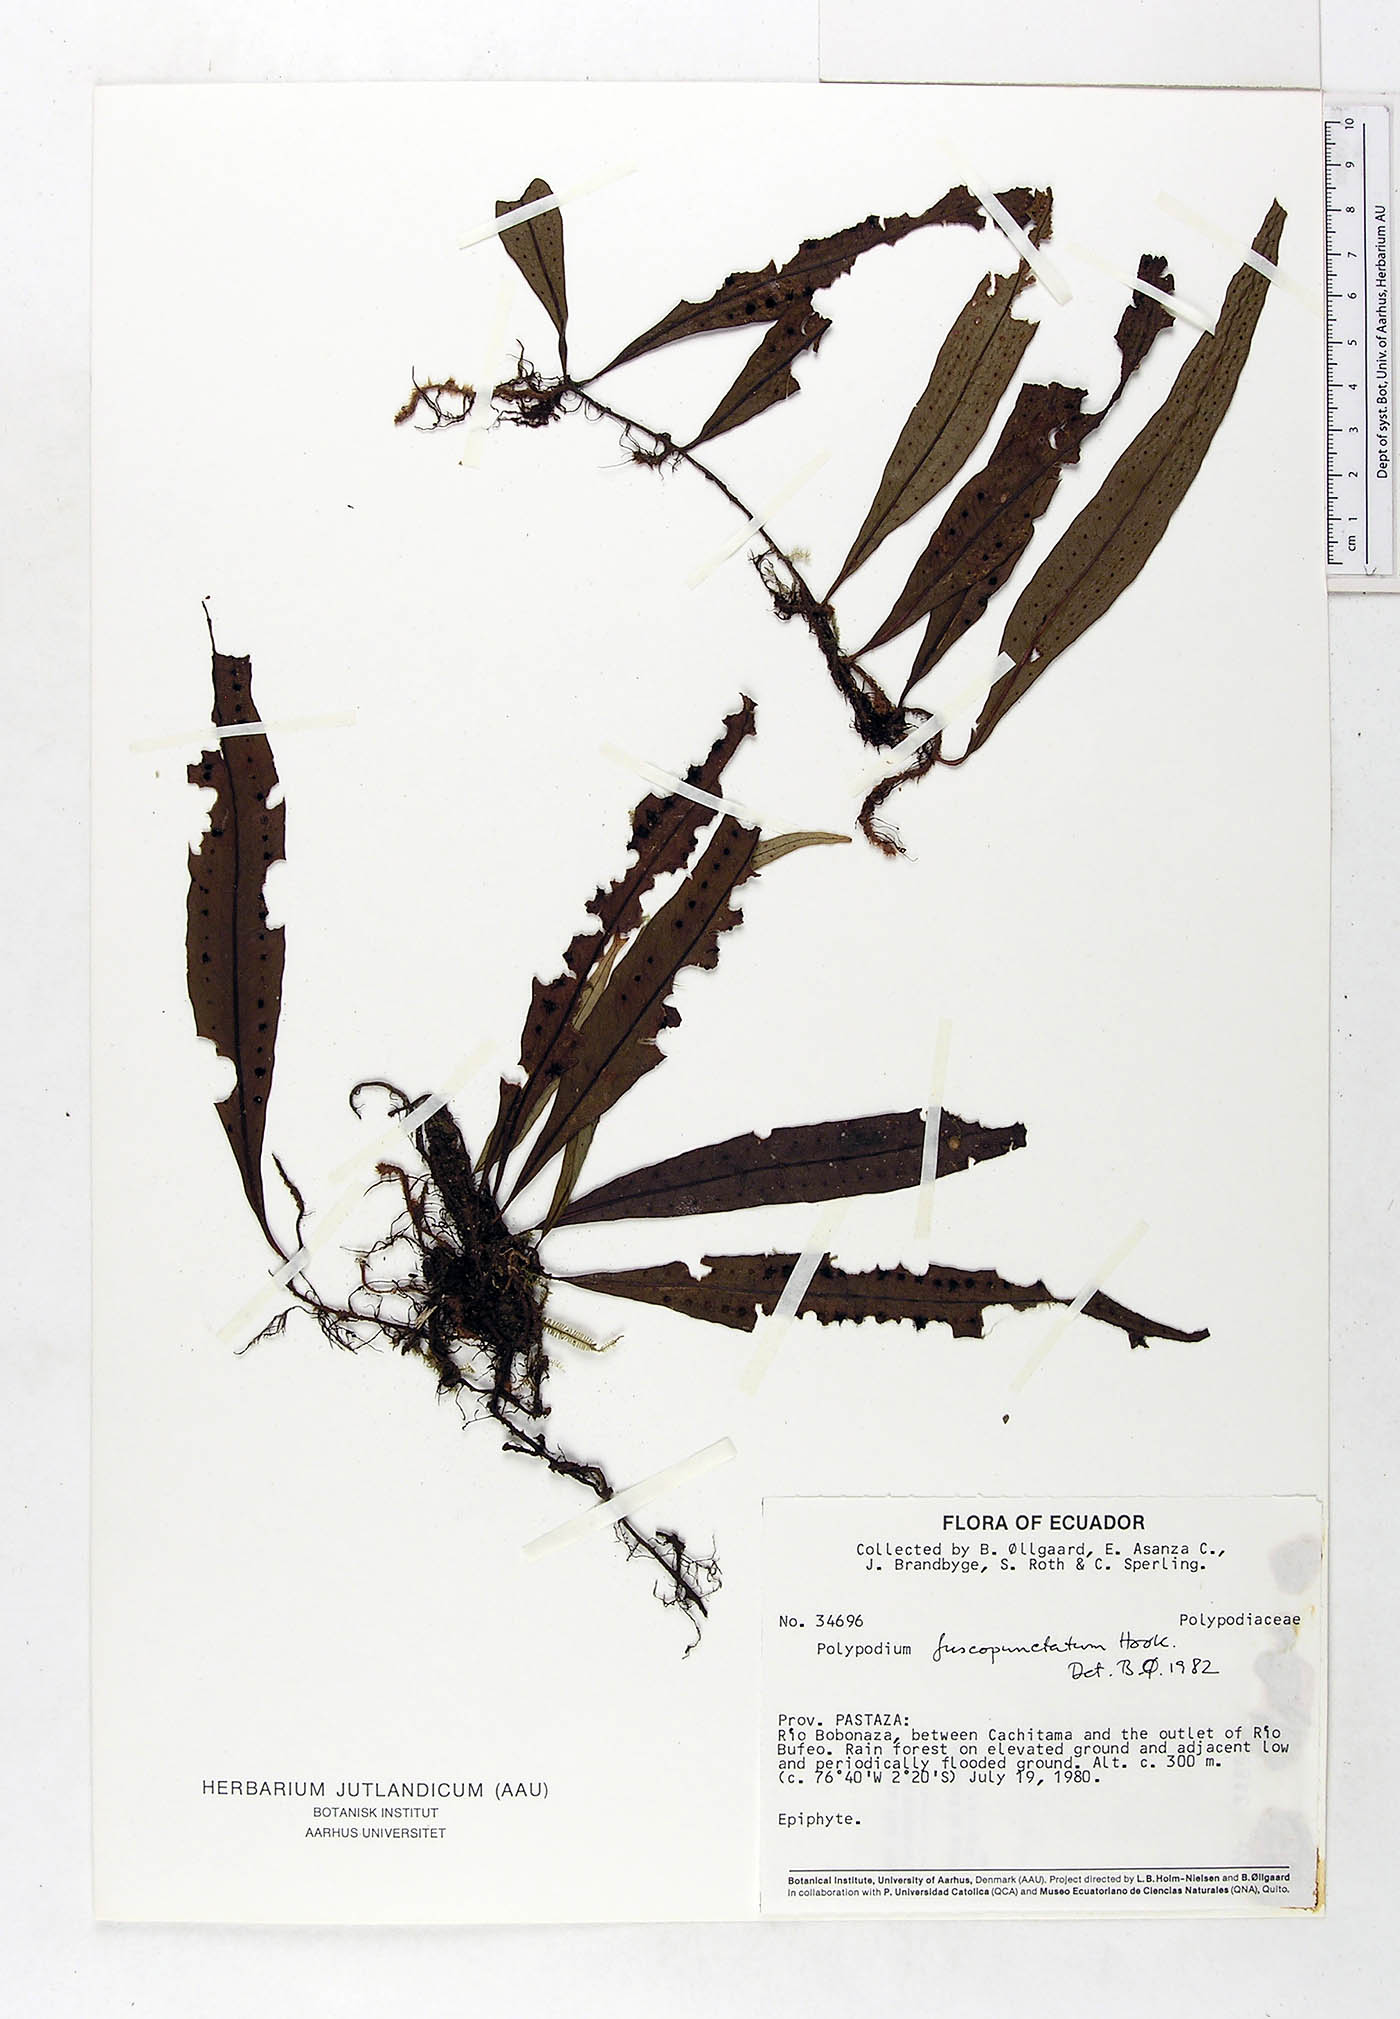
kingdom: Plantae
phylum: Tracheophyta
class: Polypodiopsida
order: Polypodiales
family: Polypodiaceae
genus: Microgramma
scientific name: Microgramma dictyophylla
